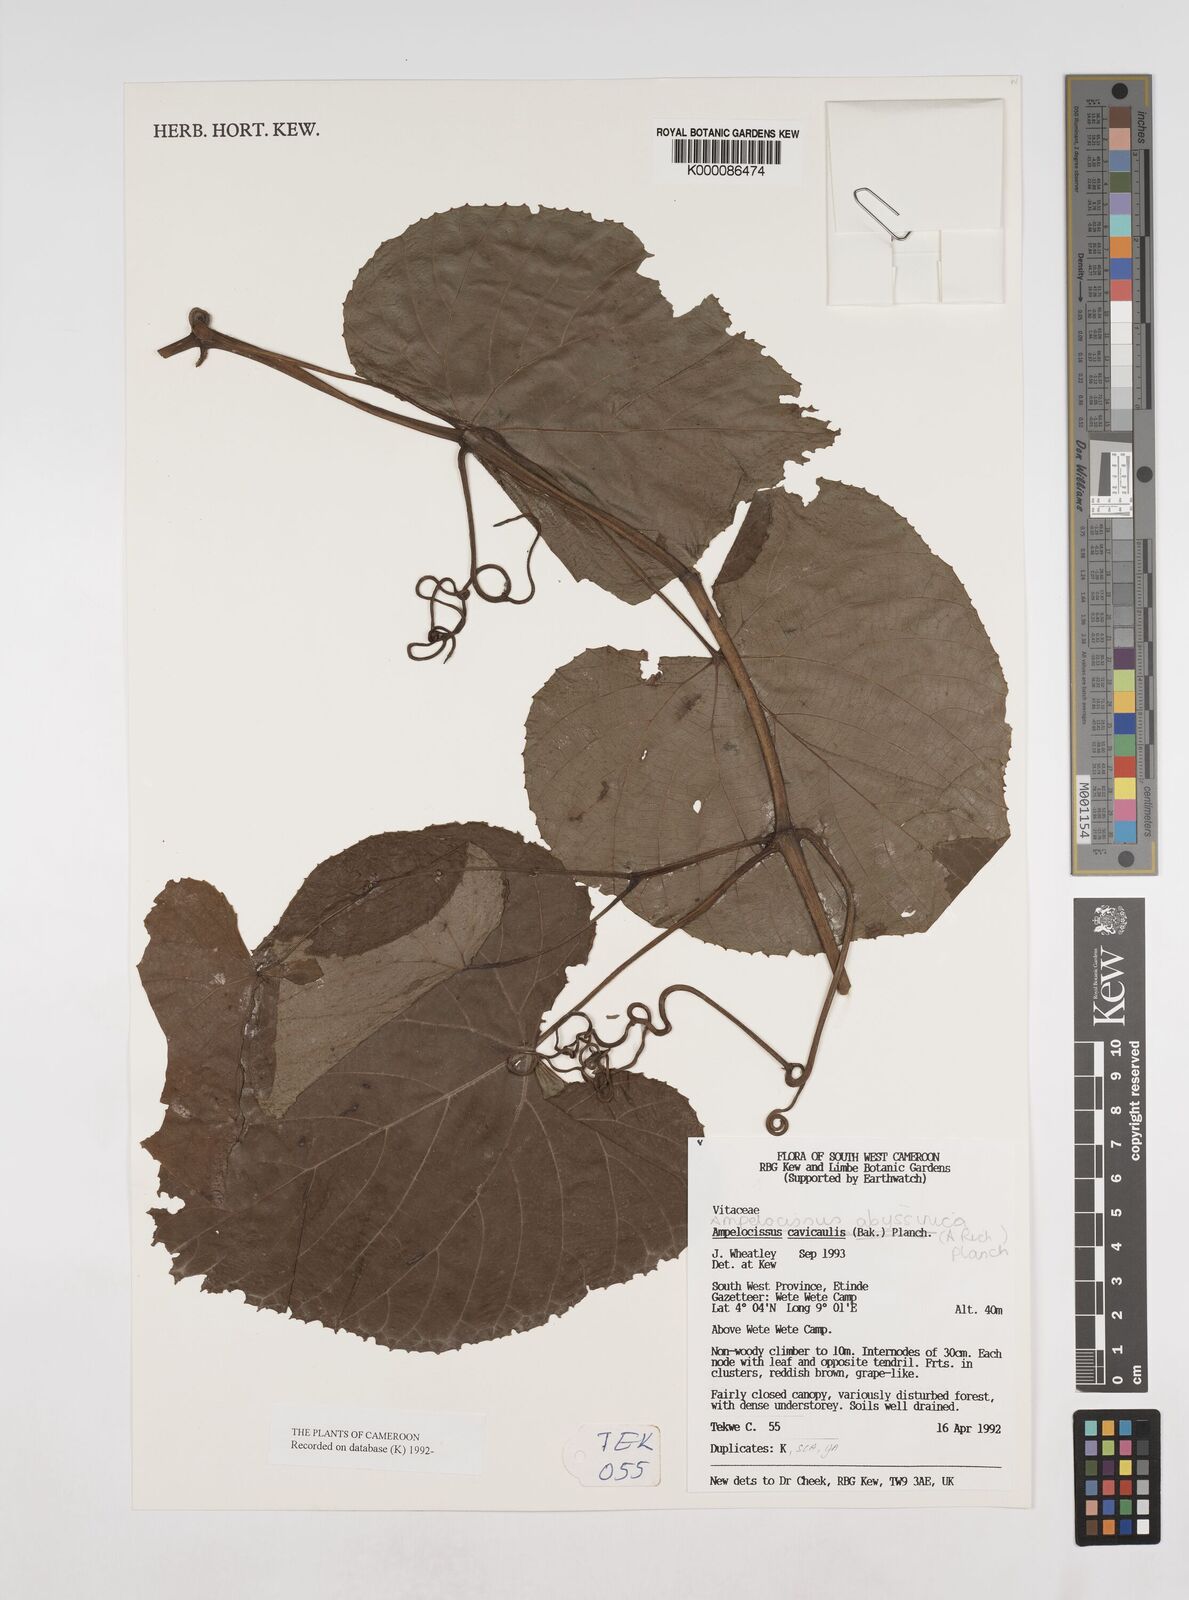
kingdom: Plantae
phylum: Tracheophyta
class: Magnoliopsida
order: Vitales
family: Vitaceae
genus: Ampelocissus
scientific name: Ampelocissus abyssinica
